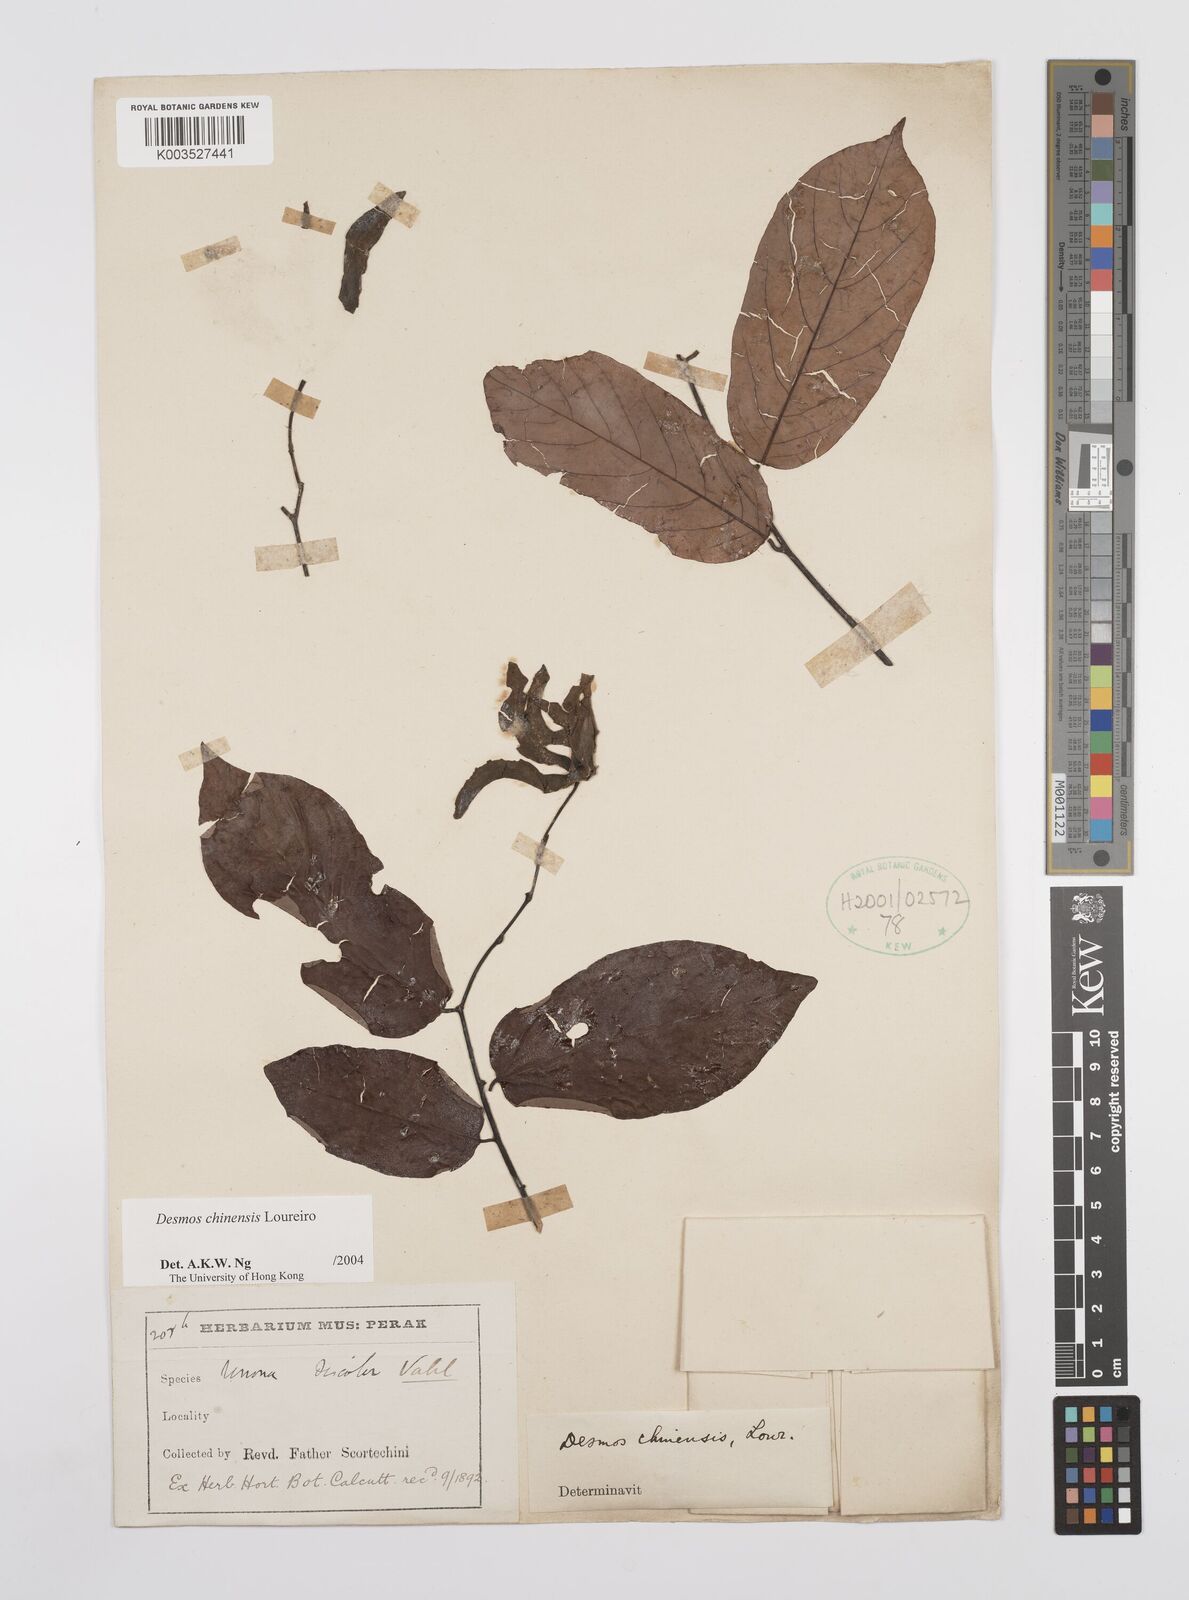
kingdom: Plantae
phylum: Tracheophyta
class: Magnoliopsida
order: Magnoliales
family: Annonaceae
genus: Desmos
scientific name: Desmos chinensis
